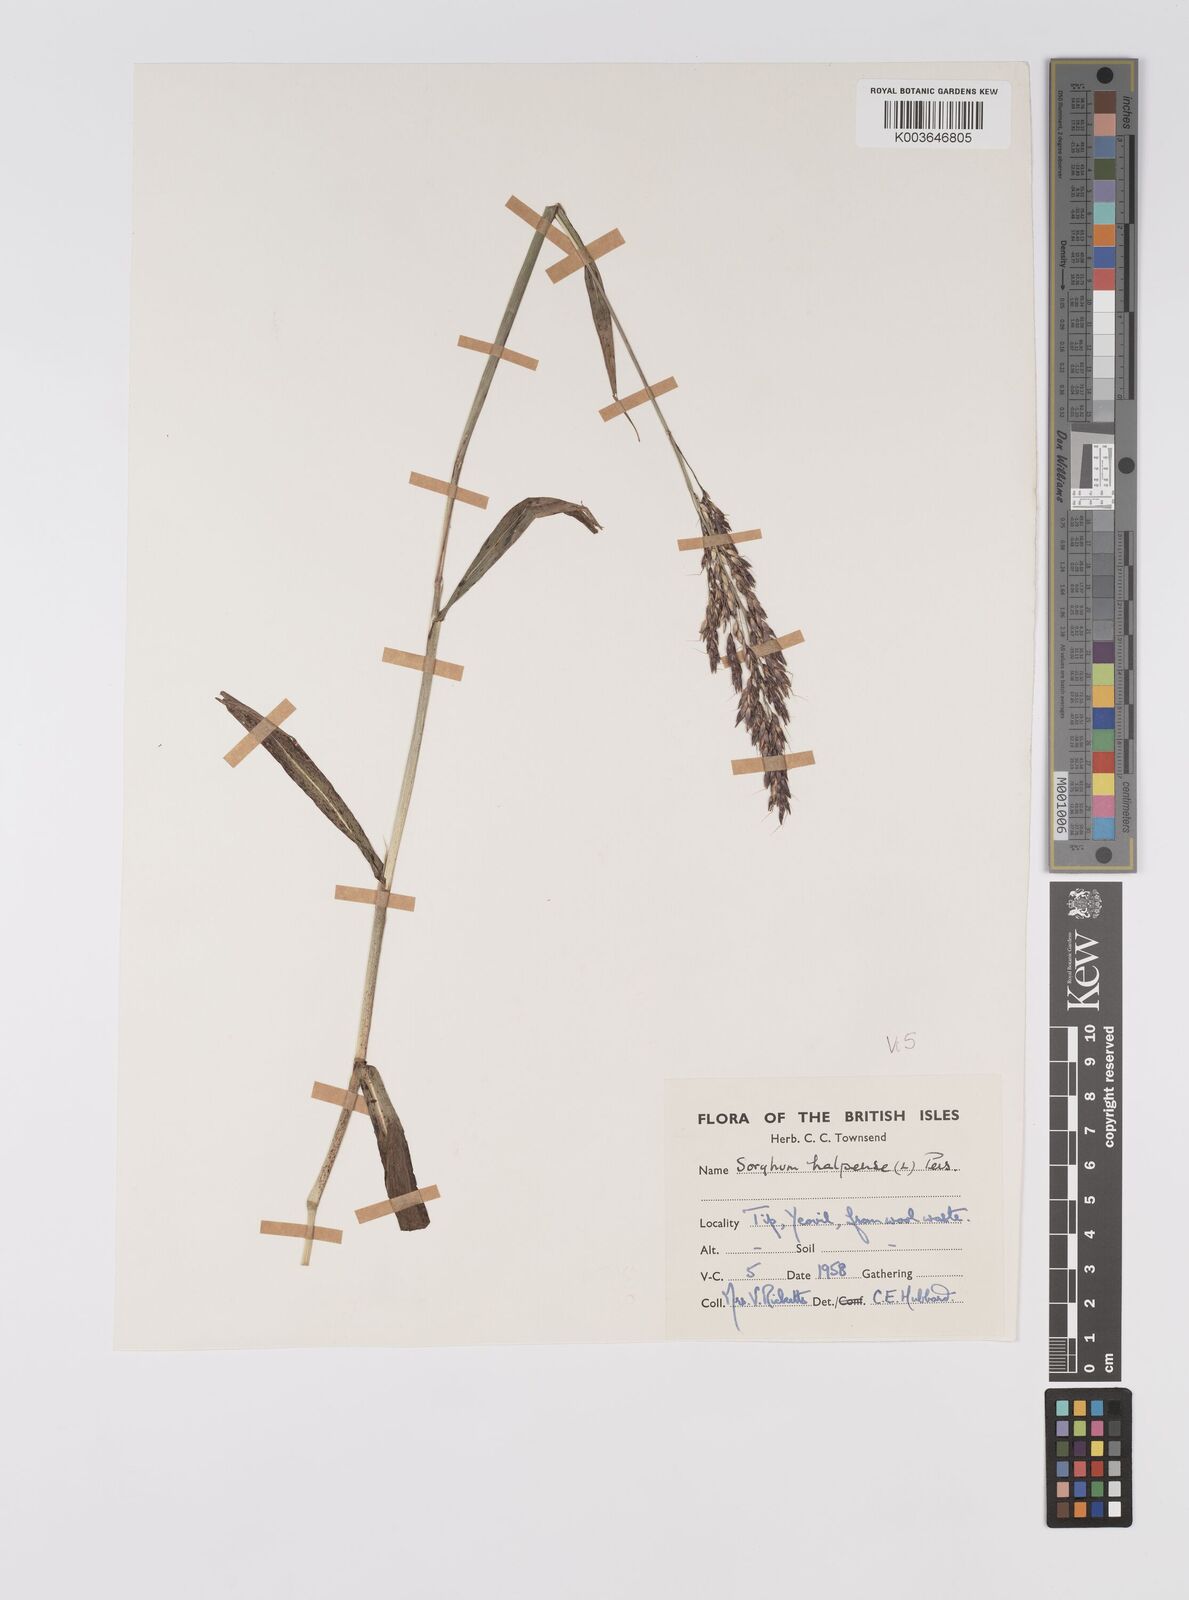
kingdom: Plantae
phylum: Tracheophyta
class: Liliopsida
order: Poales
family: Poaceae
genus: Sorghum
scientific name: Sorghum halepense
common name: Johnson-grass
